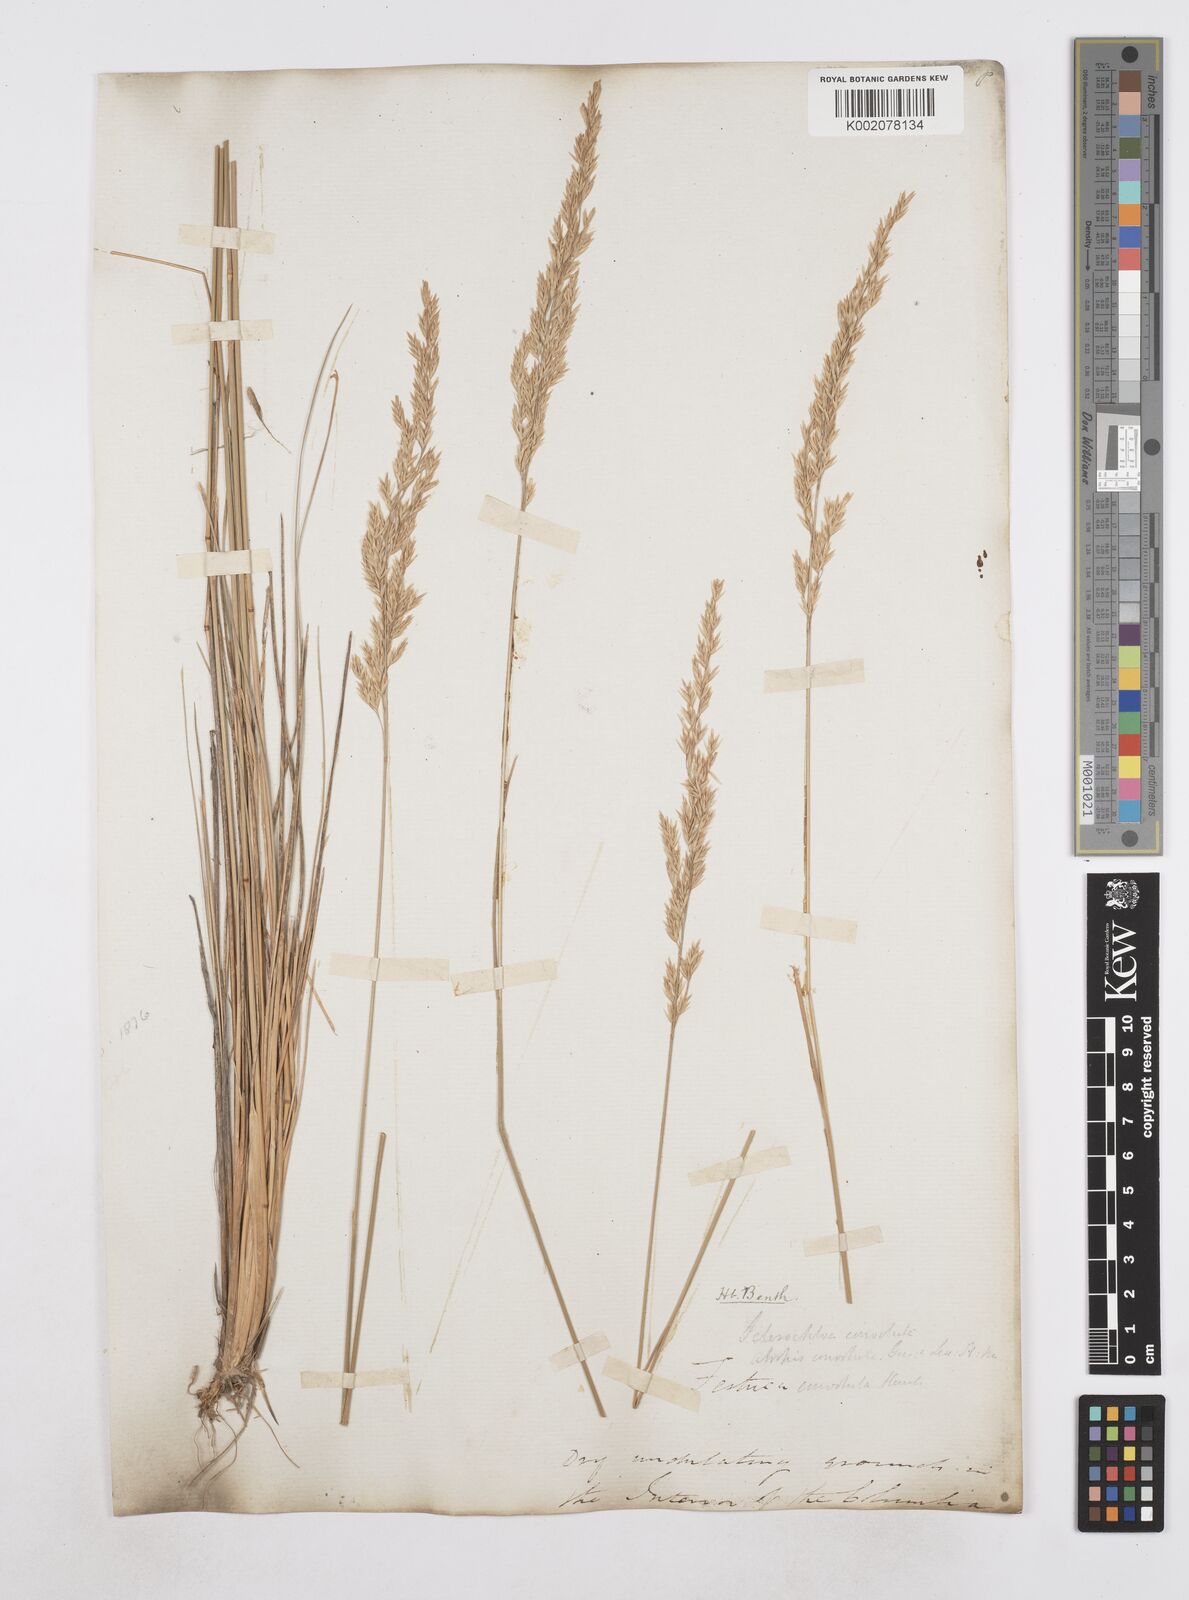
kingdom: Plantae
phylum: Tracheophyta
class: Liliopsida
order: Poales
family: Poaceae
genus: Poa
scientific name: Poa
